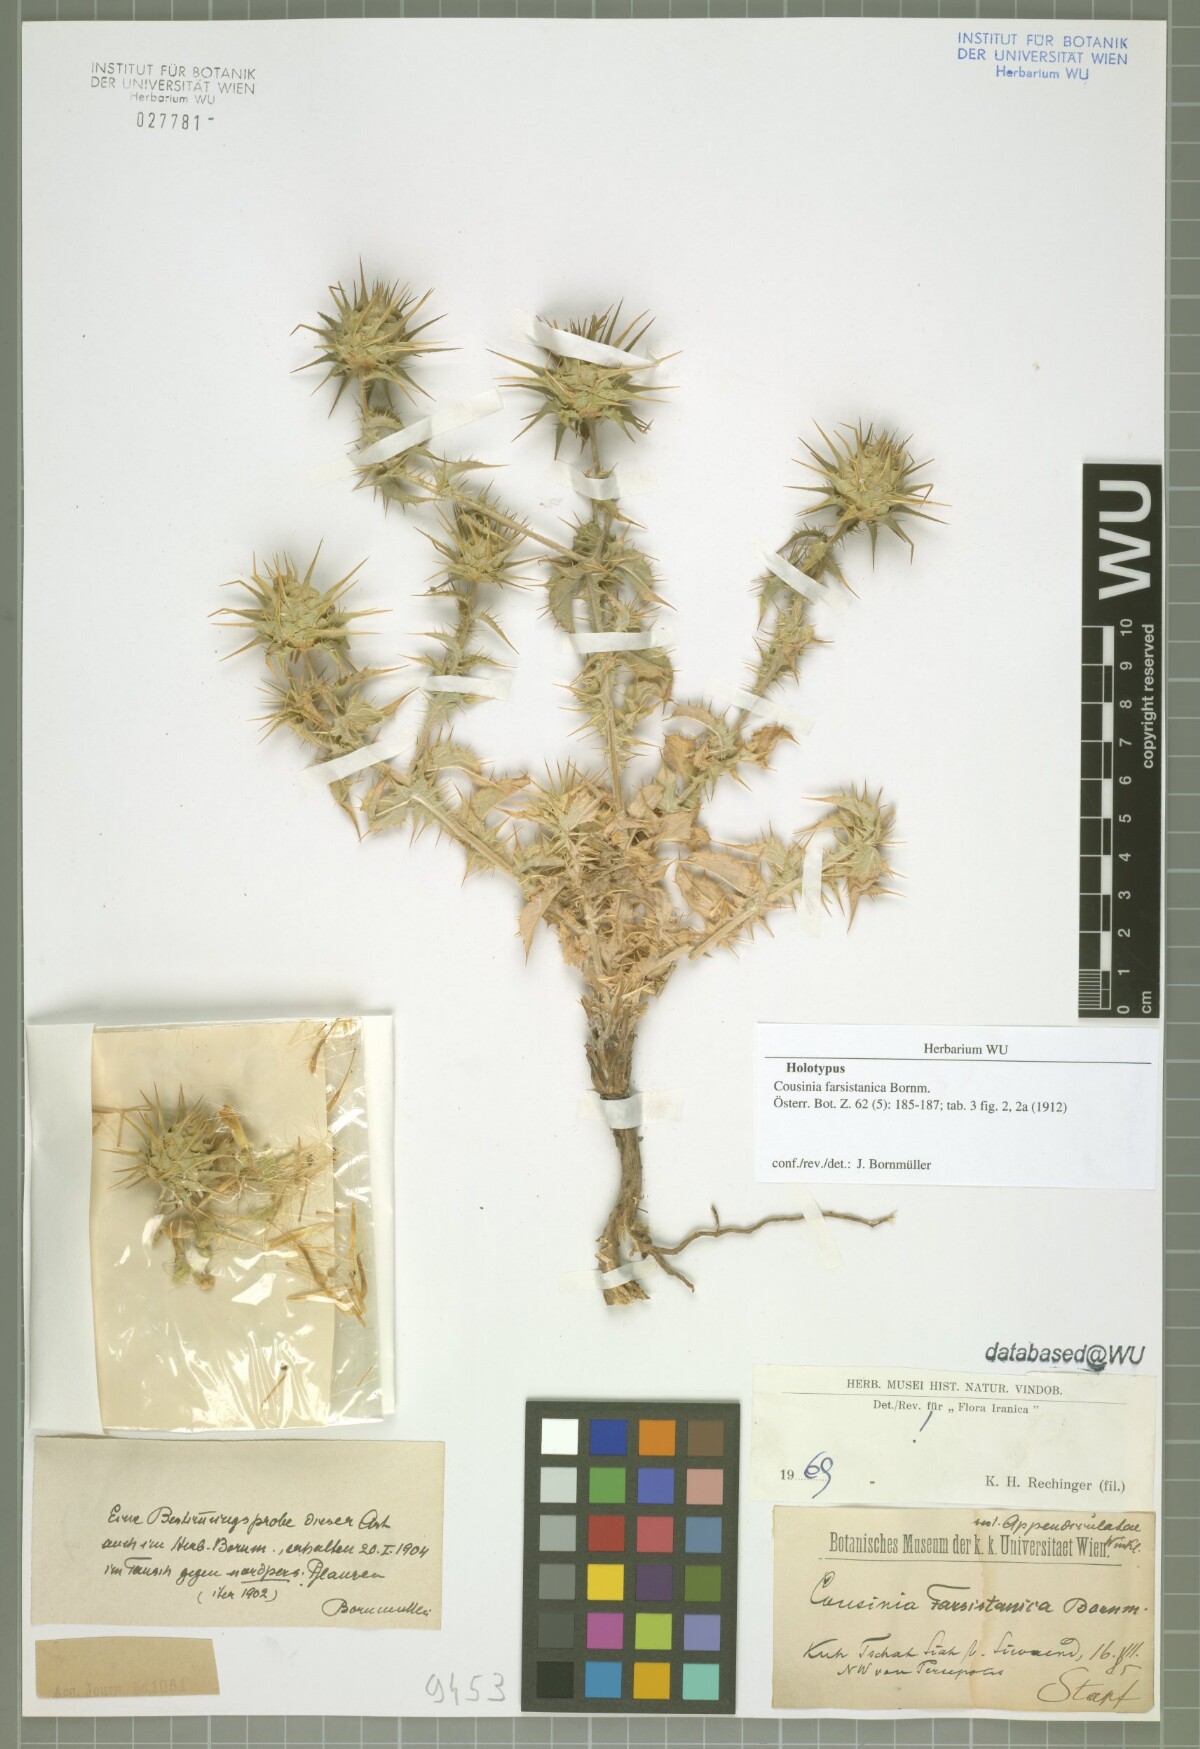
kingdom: Plantae
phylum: Tracheophyta
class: Magnoliopsida
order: Asterales
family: Asteraceae
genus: Cousinia
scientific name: Cousinia farsistanica
